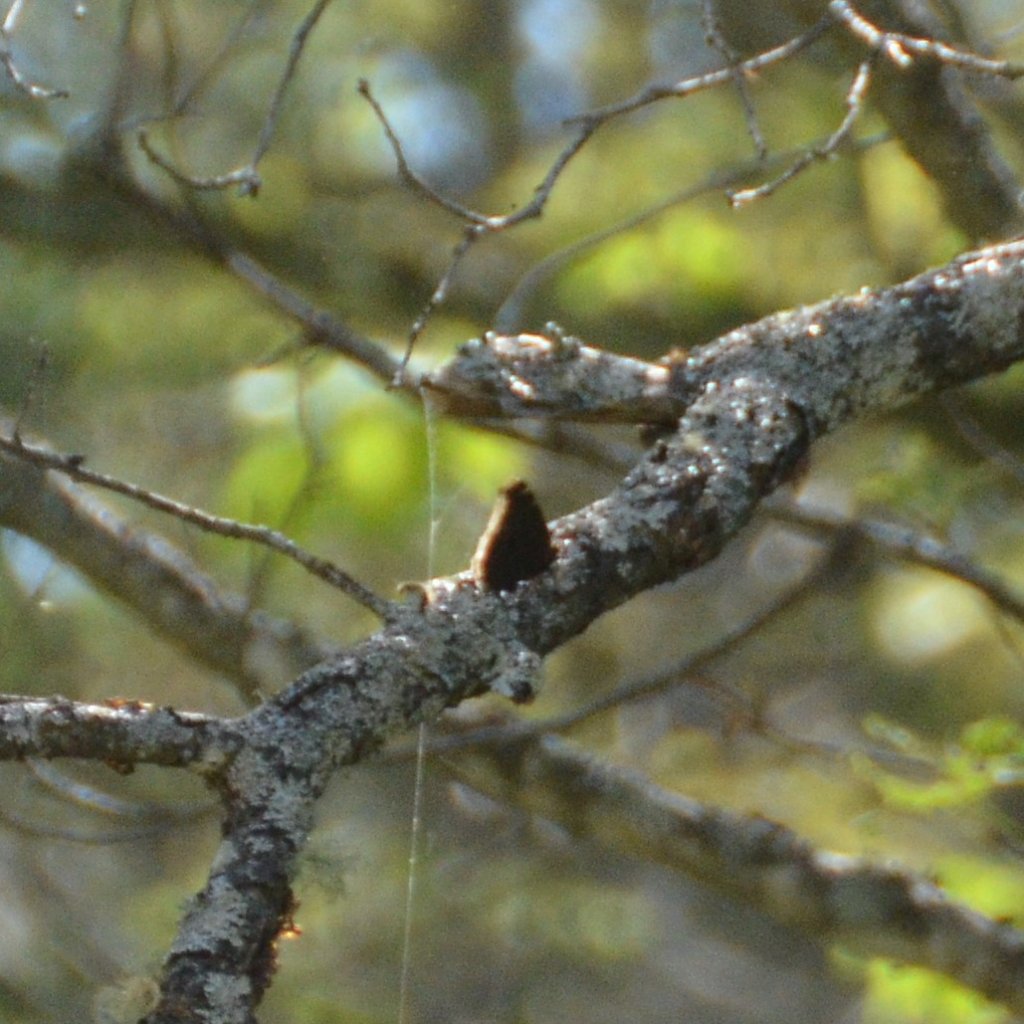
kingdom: Animalia
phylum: Arthropoda
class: Insecta
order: Lepidoptera
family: Nymphalidae
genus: Nymphalis
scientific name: Nymphalis antiopa
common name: Mourning Cloak
